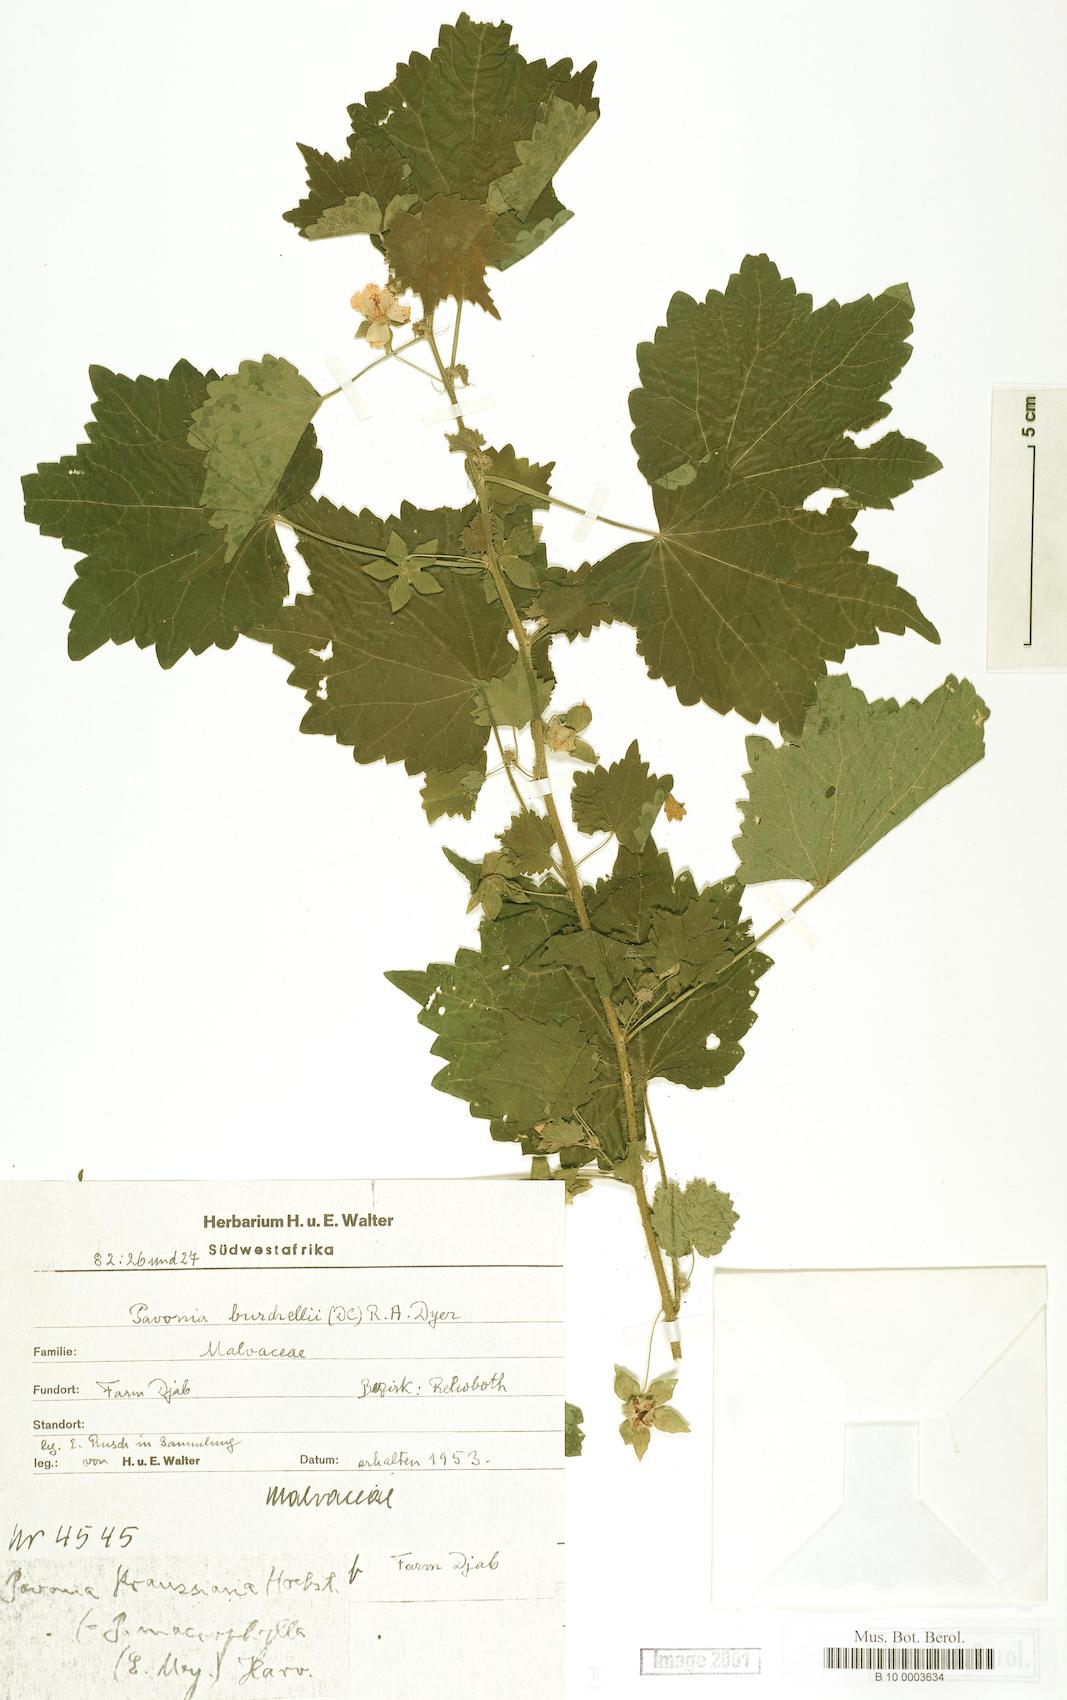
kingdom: Plantae
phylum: Tracheophyta
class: Magnoliopsida
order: Malvales
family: Malvaceae
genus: Pavonia
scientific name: Pavonia burchellii
